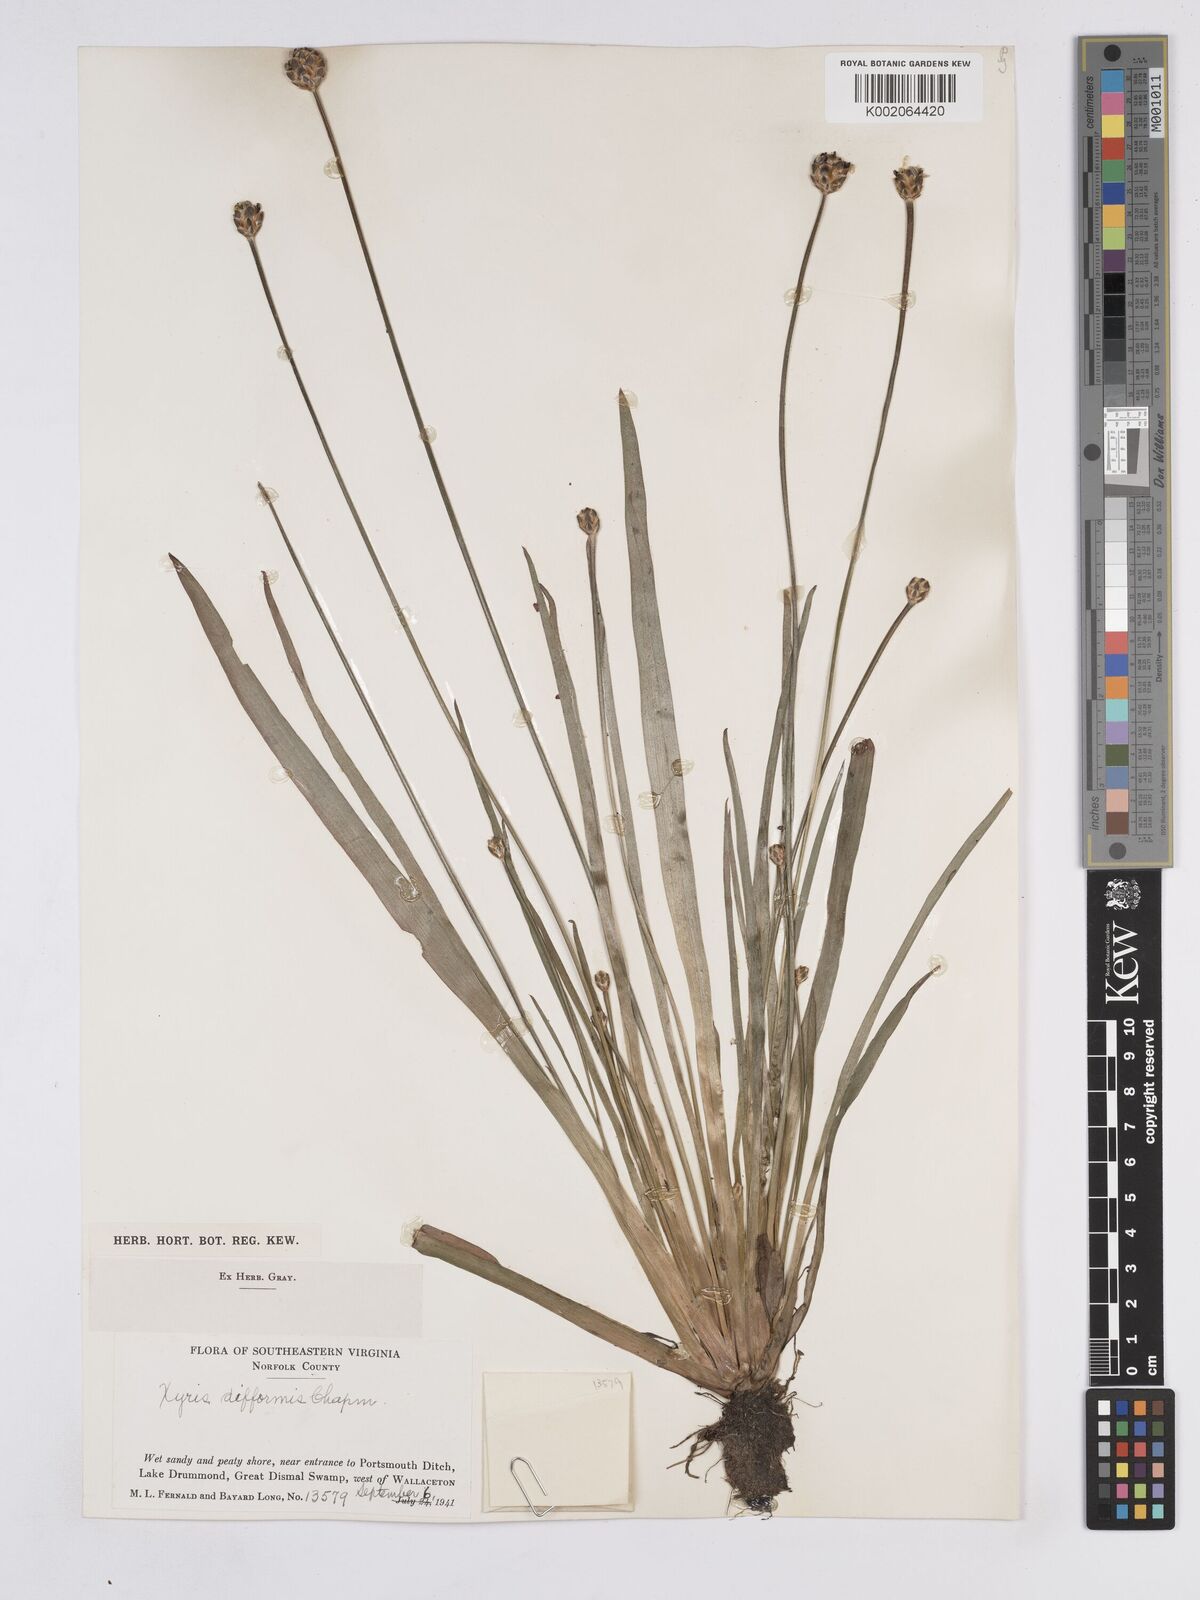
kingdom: Plantae
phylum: Tracheophyta
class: Liliopsida
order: Poales
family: Xyridaceae
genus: Xyris
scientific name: Xyris difformis
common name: Bog yellow-eyed-grass
